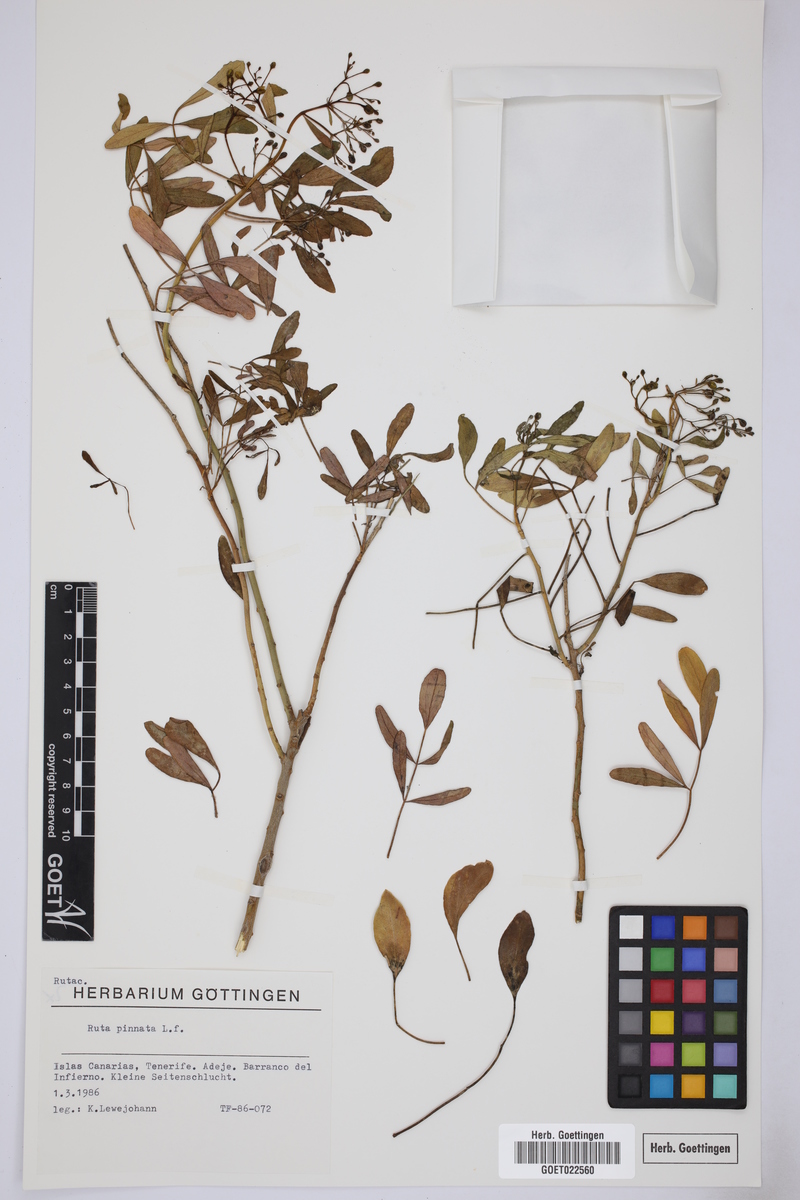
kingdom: Plantae
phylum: Tracheophyta
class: Magnoliopsida
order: Sapindales
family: Rutaceae
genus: Ruta
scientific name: Ruta pinnata
